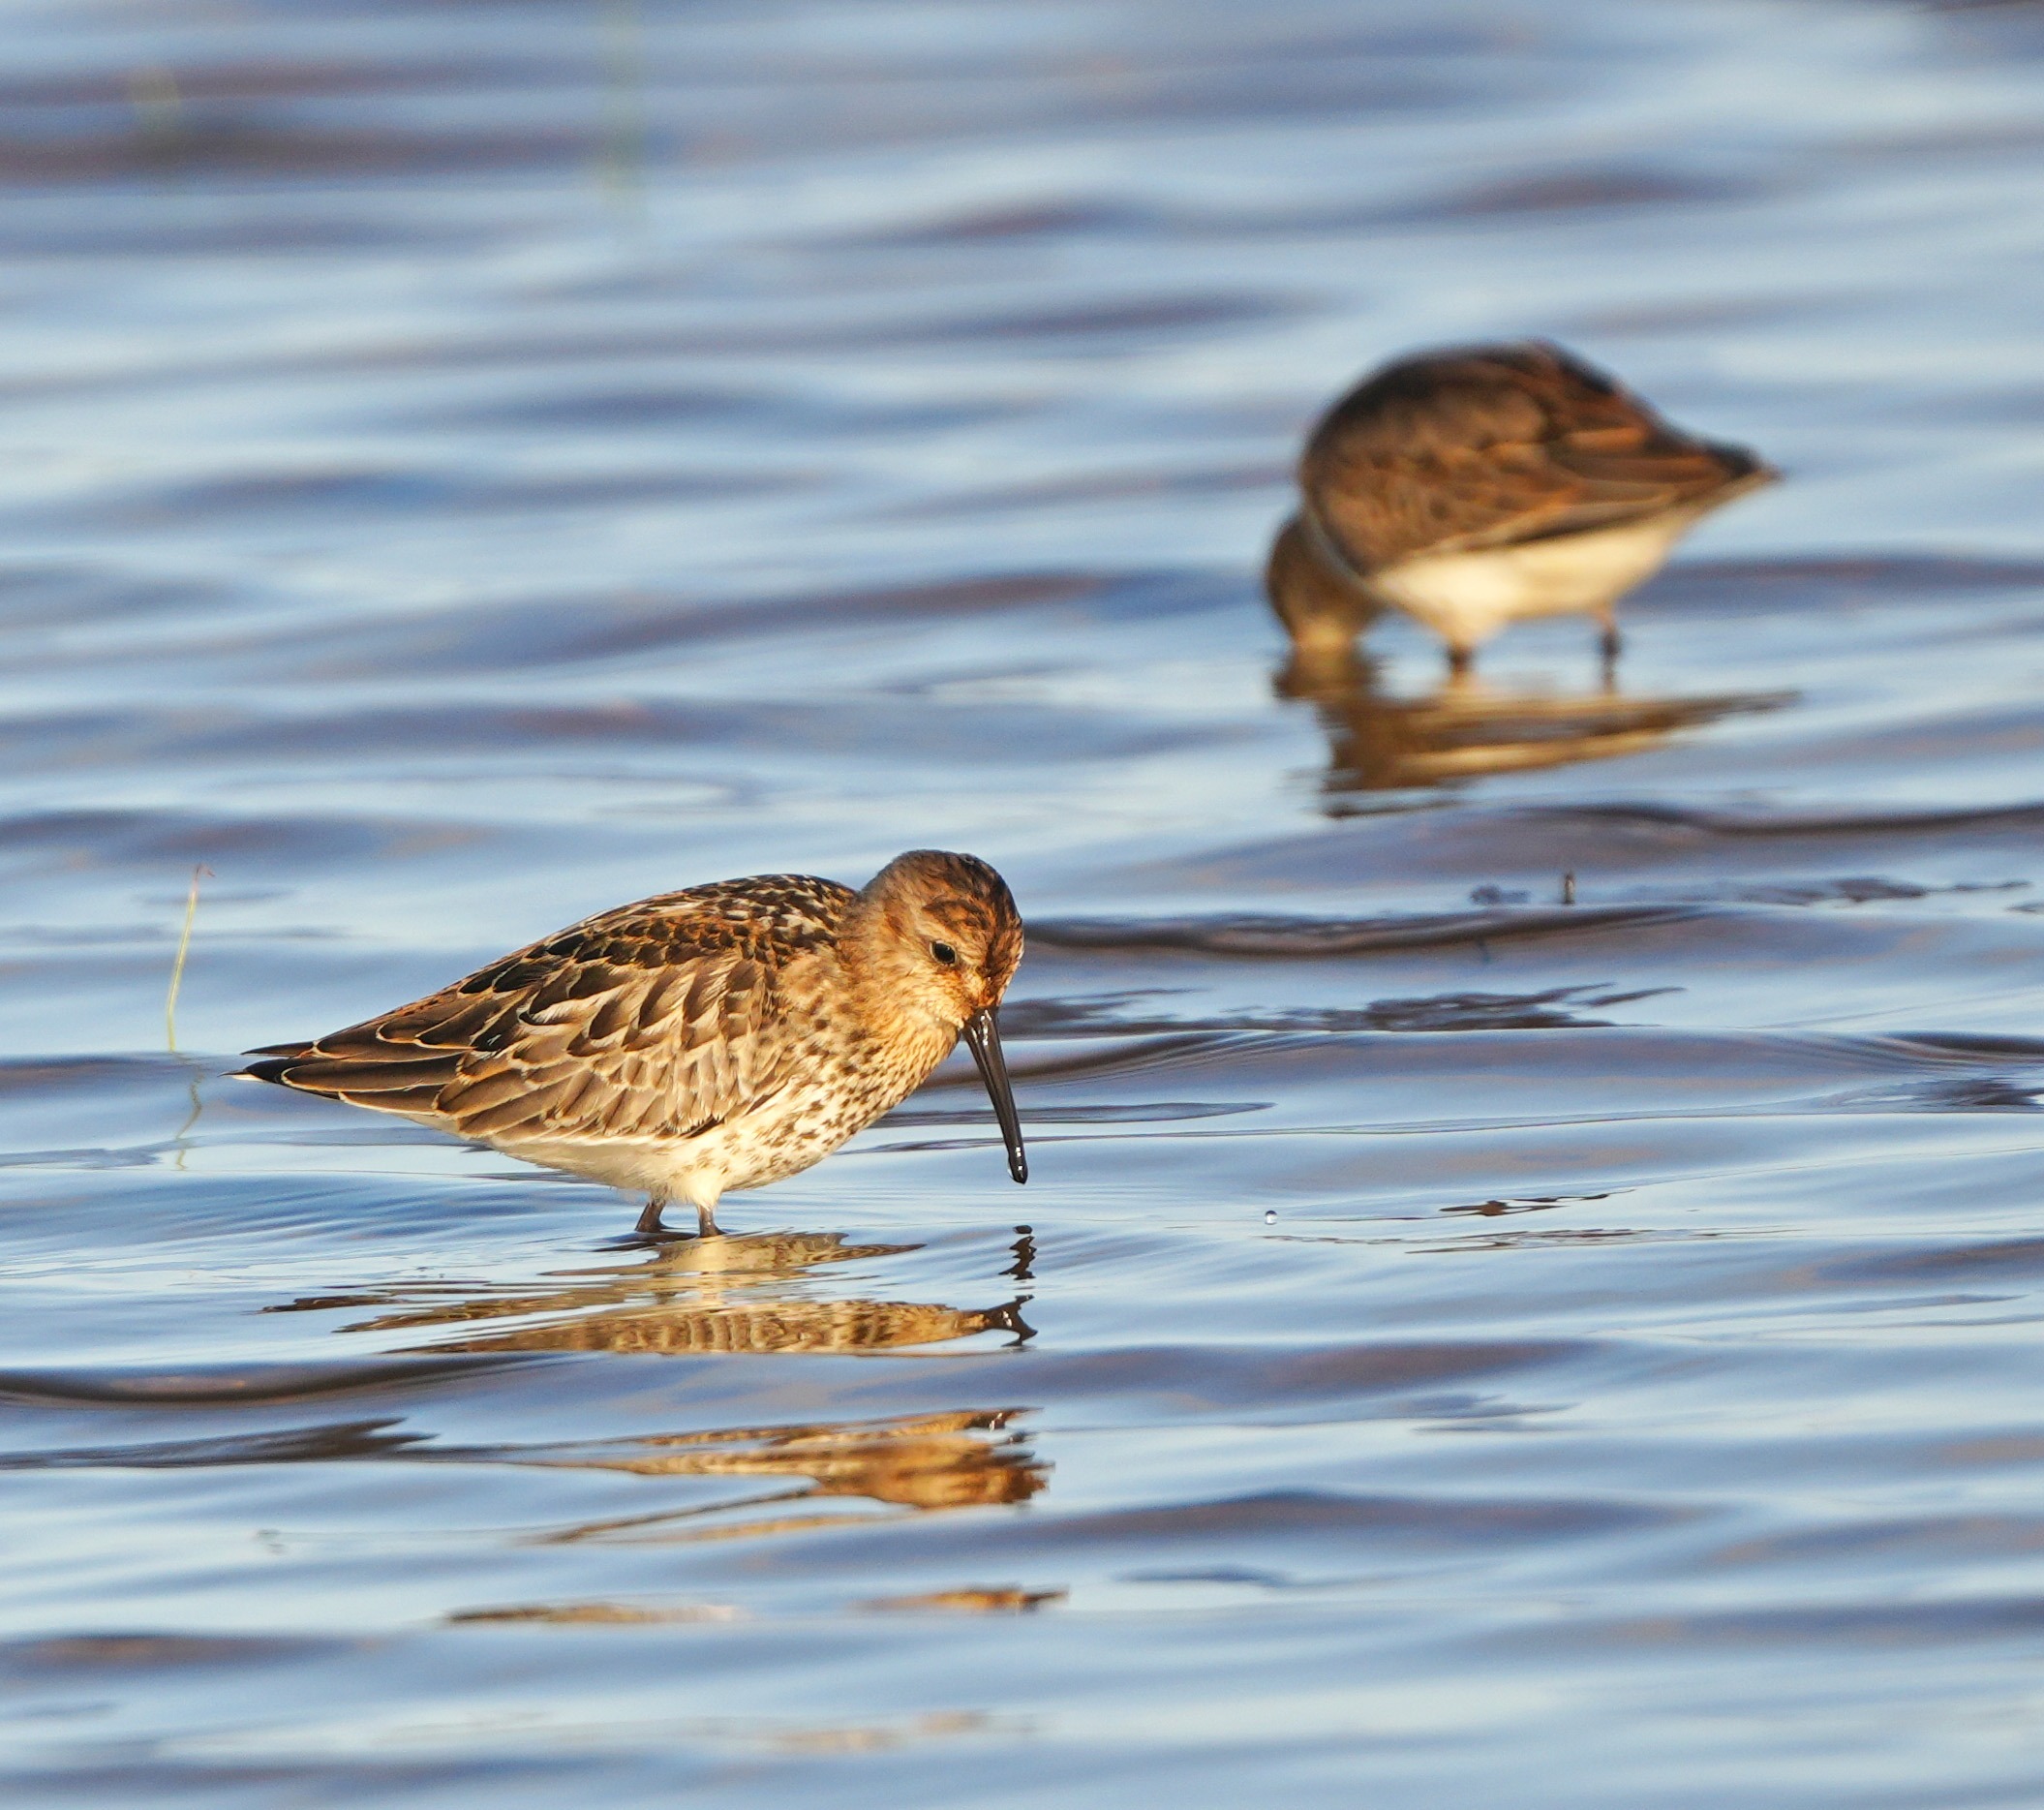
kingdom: Animalia
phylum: Chordata
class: Aves
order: Charadriiformes
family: Scolopacidae
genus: Calidris
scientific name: Calidris alpina
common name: Almindelig ryle
